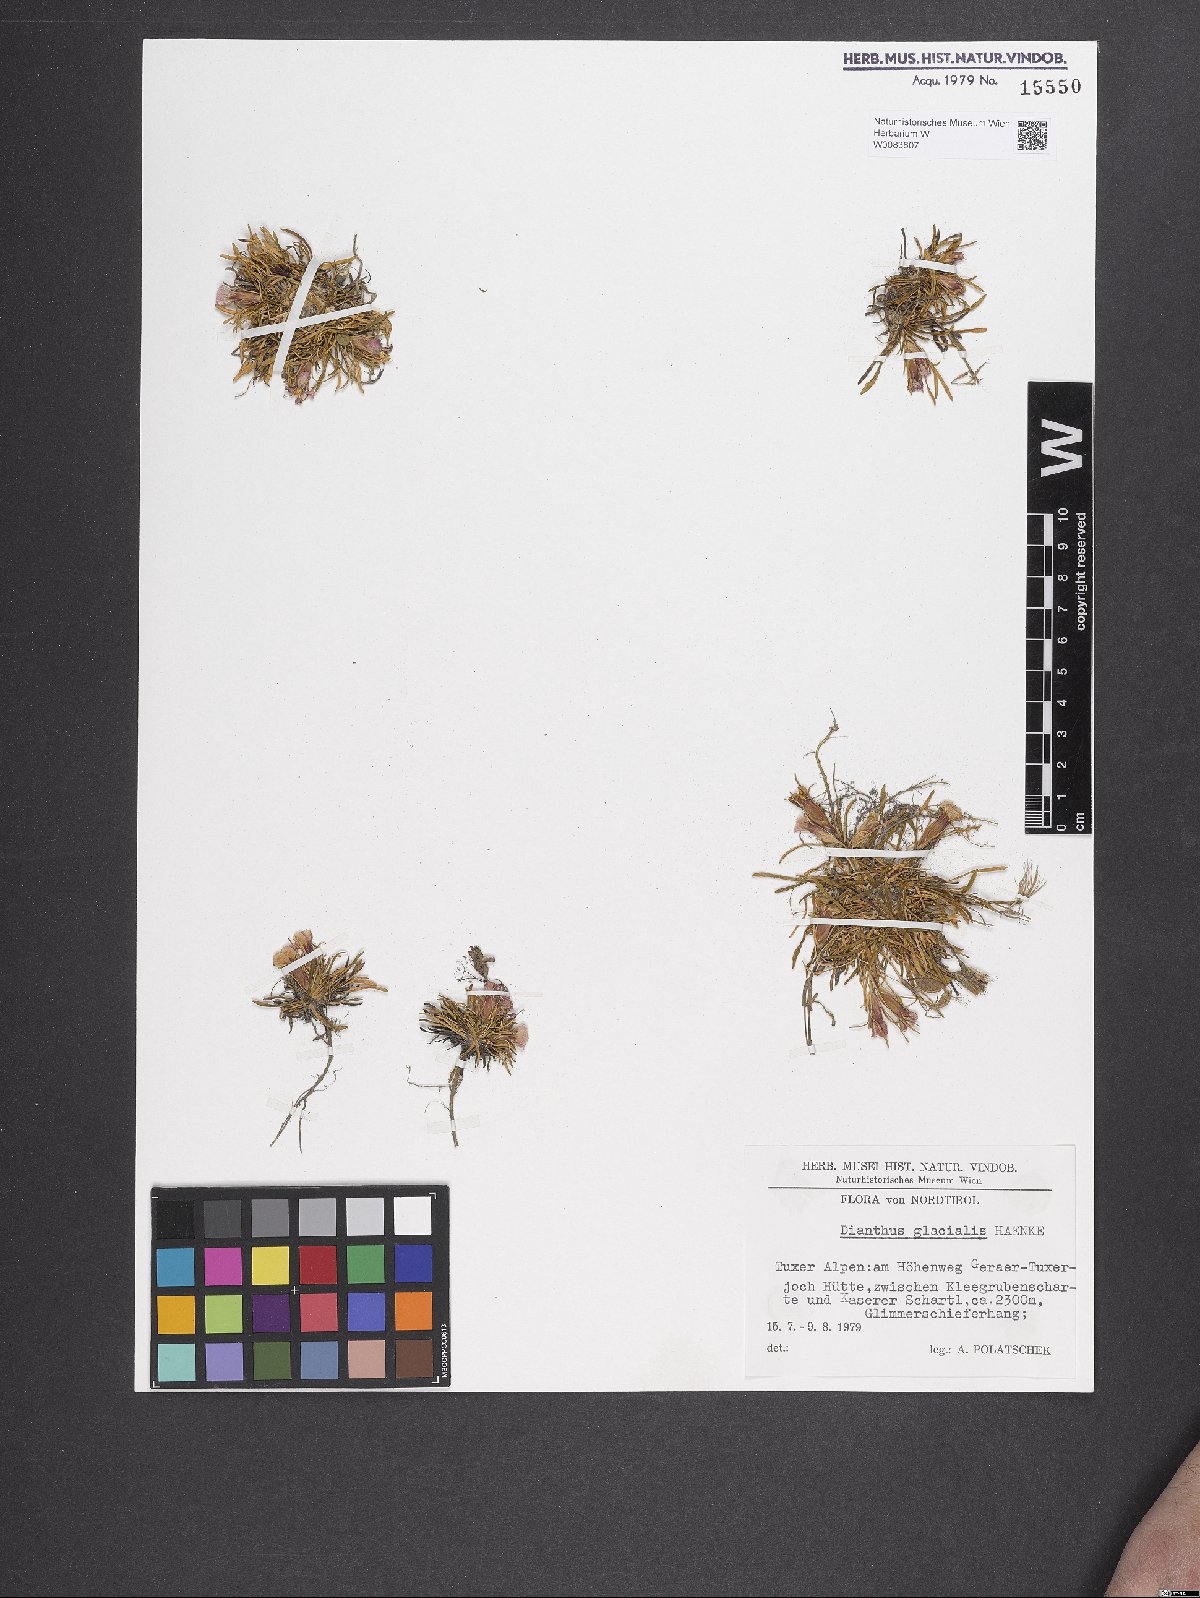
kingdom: Plantae
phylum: Tracheophyta
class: Magnoliopsida
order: Caryophyllales
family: Caryophyllaceae
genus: Dianthus
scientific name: Dianthus glacialis
